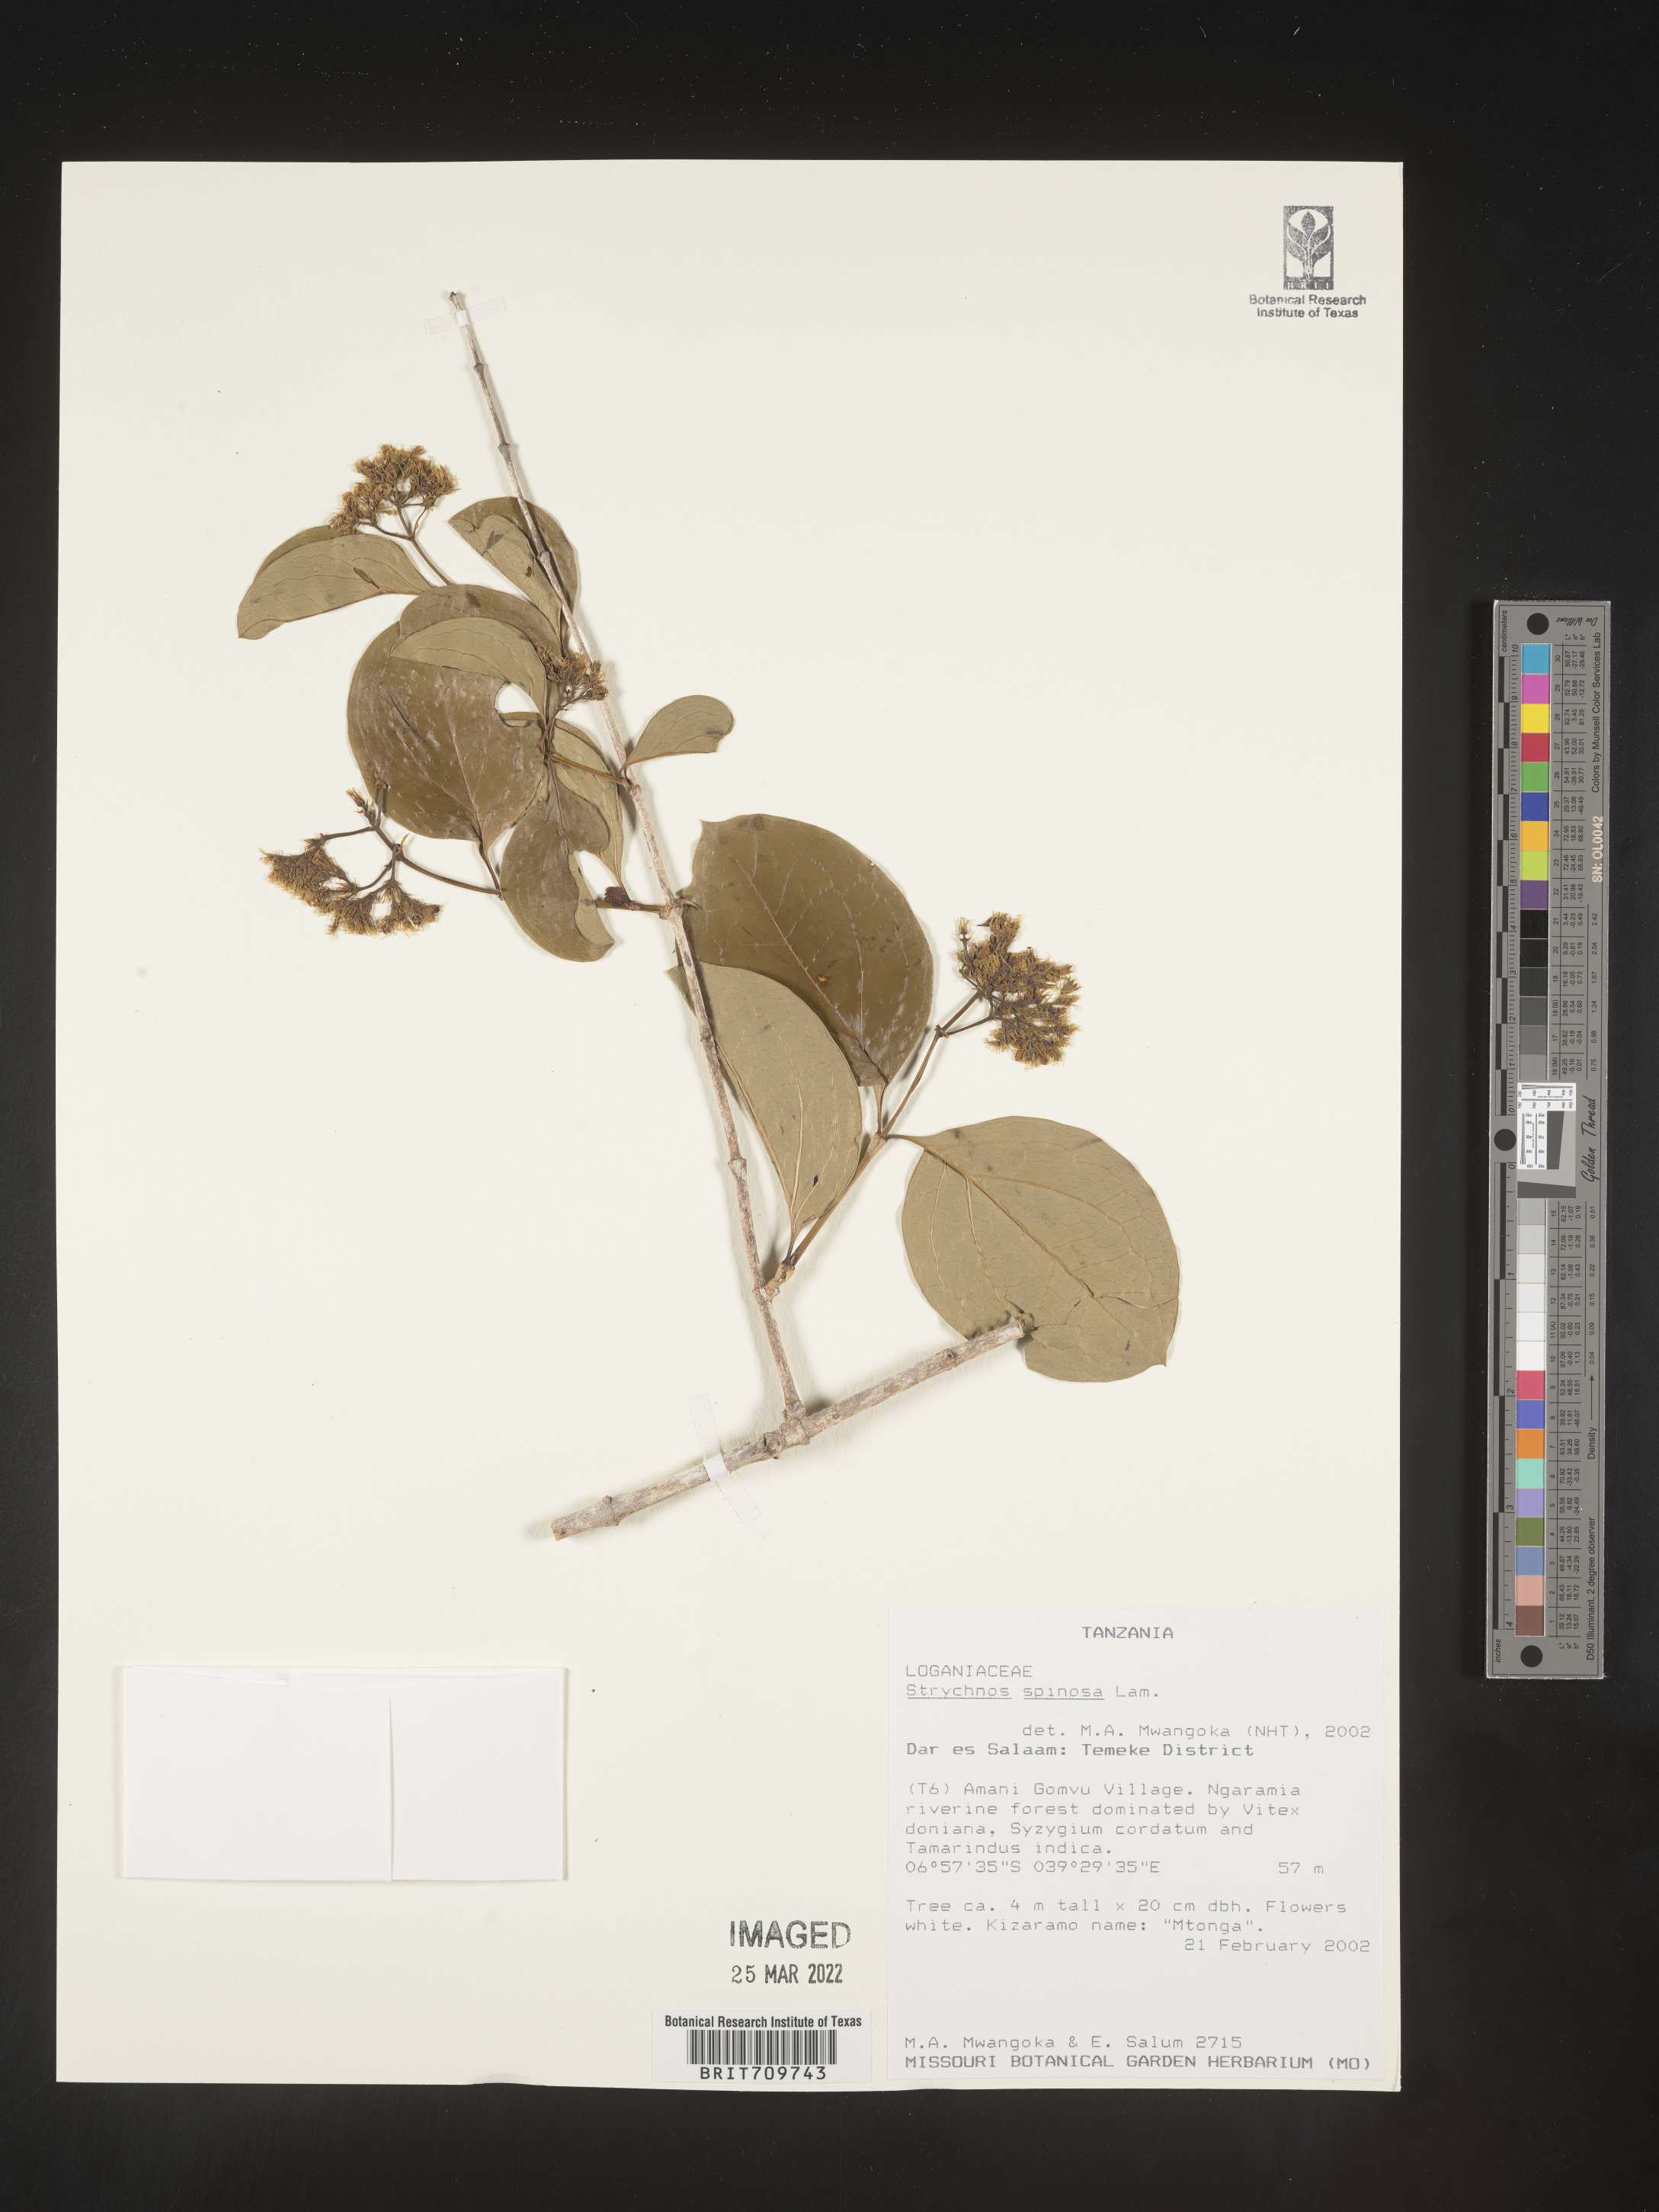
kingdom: Plantae
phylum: Tracheophyta
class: Magnoliopsida
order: Gentianales
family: Loganiaceae
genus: Strychnos
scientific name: Strychnos
